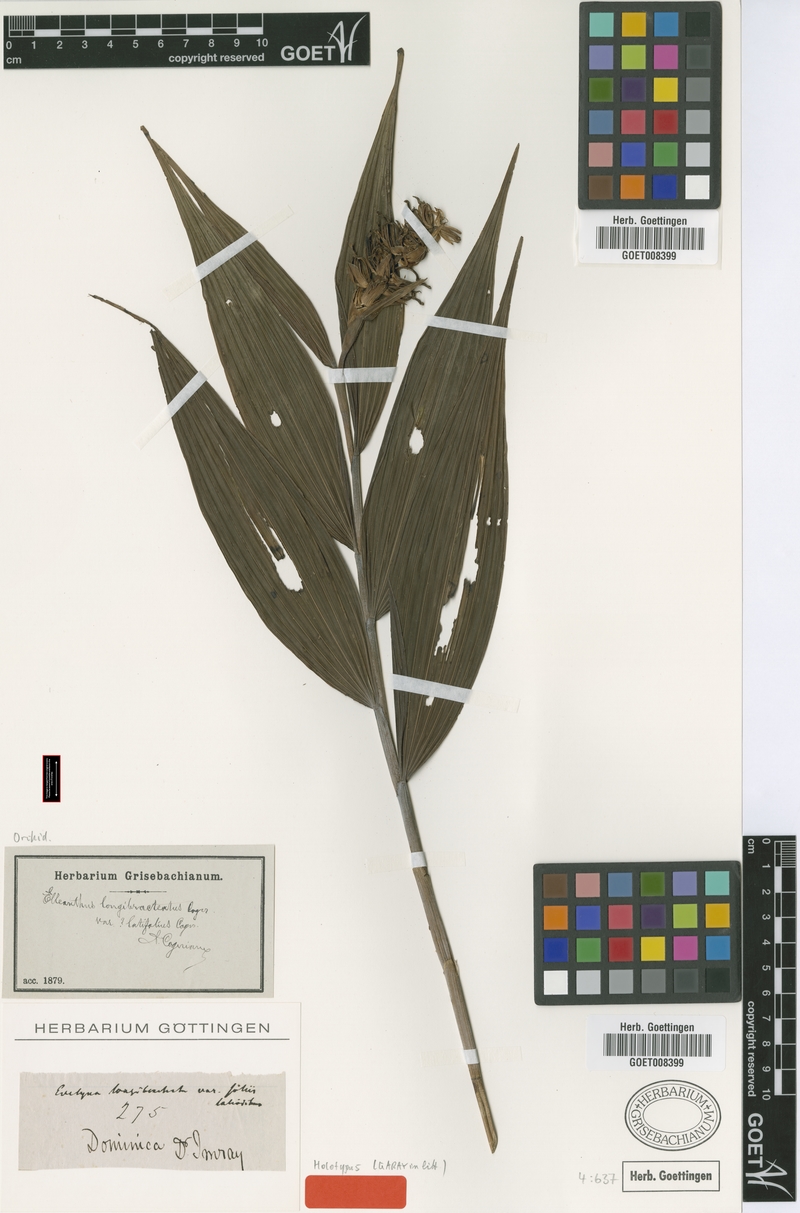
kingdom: Plantae
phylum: Tracheophyta
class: Liliopsida
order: Asparagales
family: Orchidaceae
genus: Elleanthus
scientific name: Elleanthus longibracteatus
